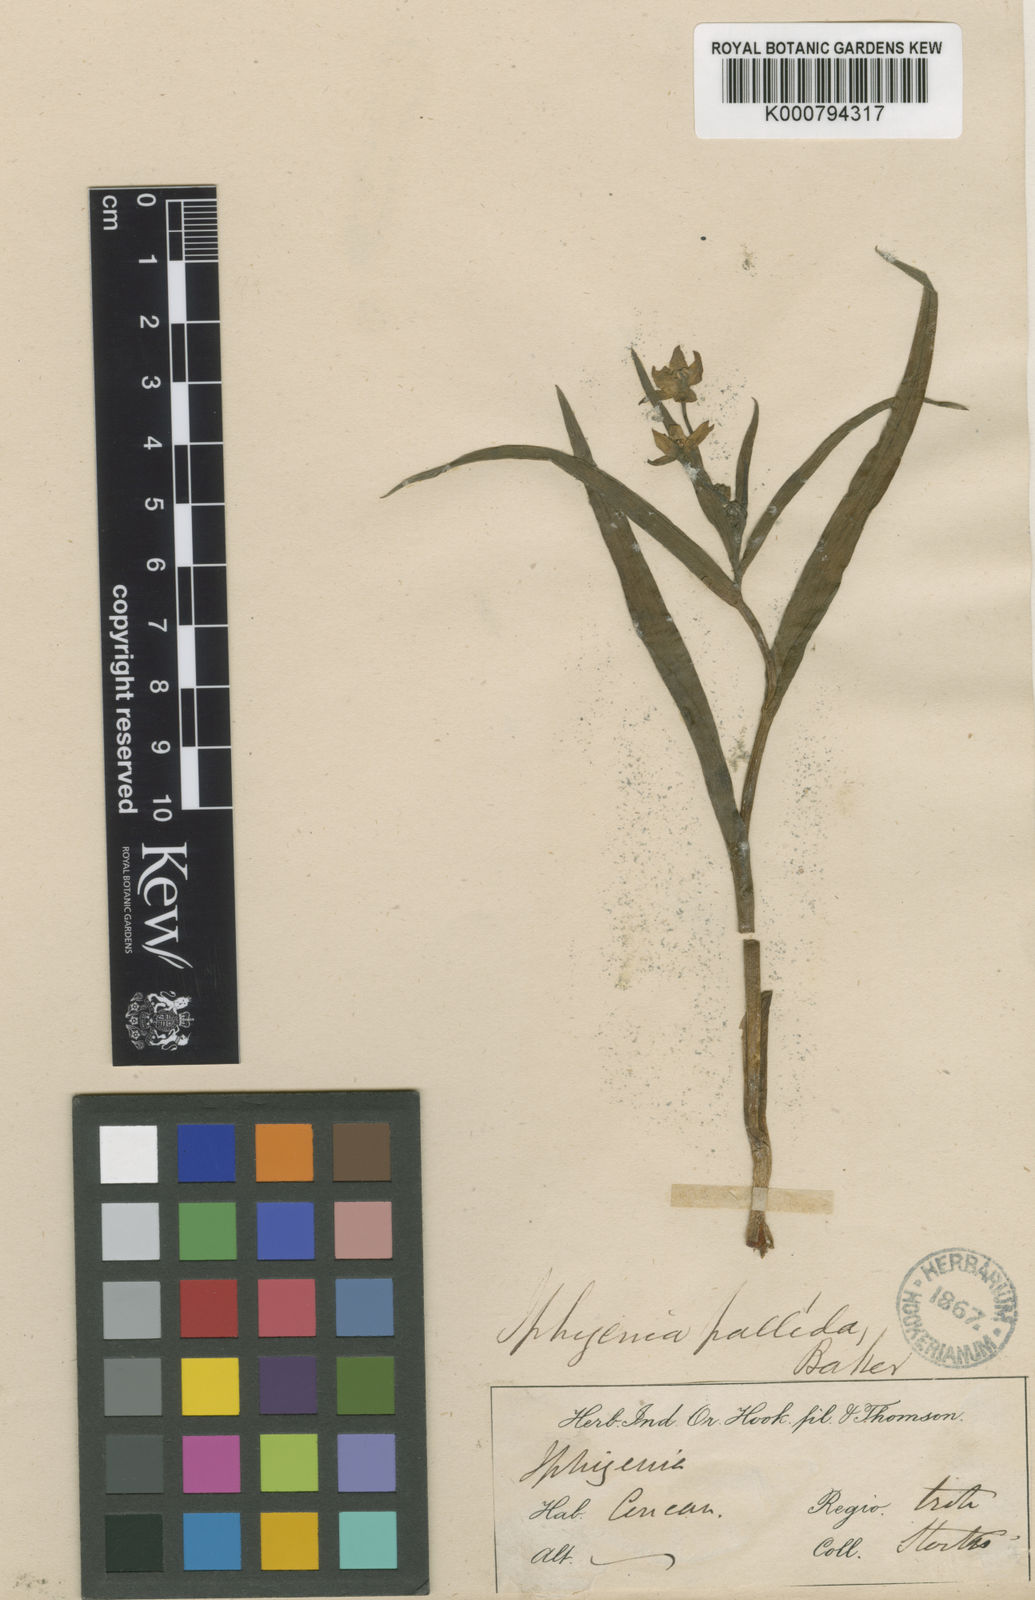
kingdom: Plantae
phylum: Tracheophyta
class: Liliopsida
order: Liliales
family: Colchicaceae
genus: Iphigenia
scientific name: Iphigenia pallida
